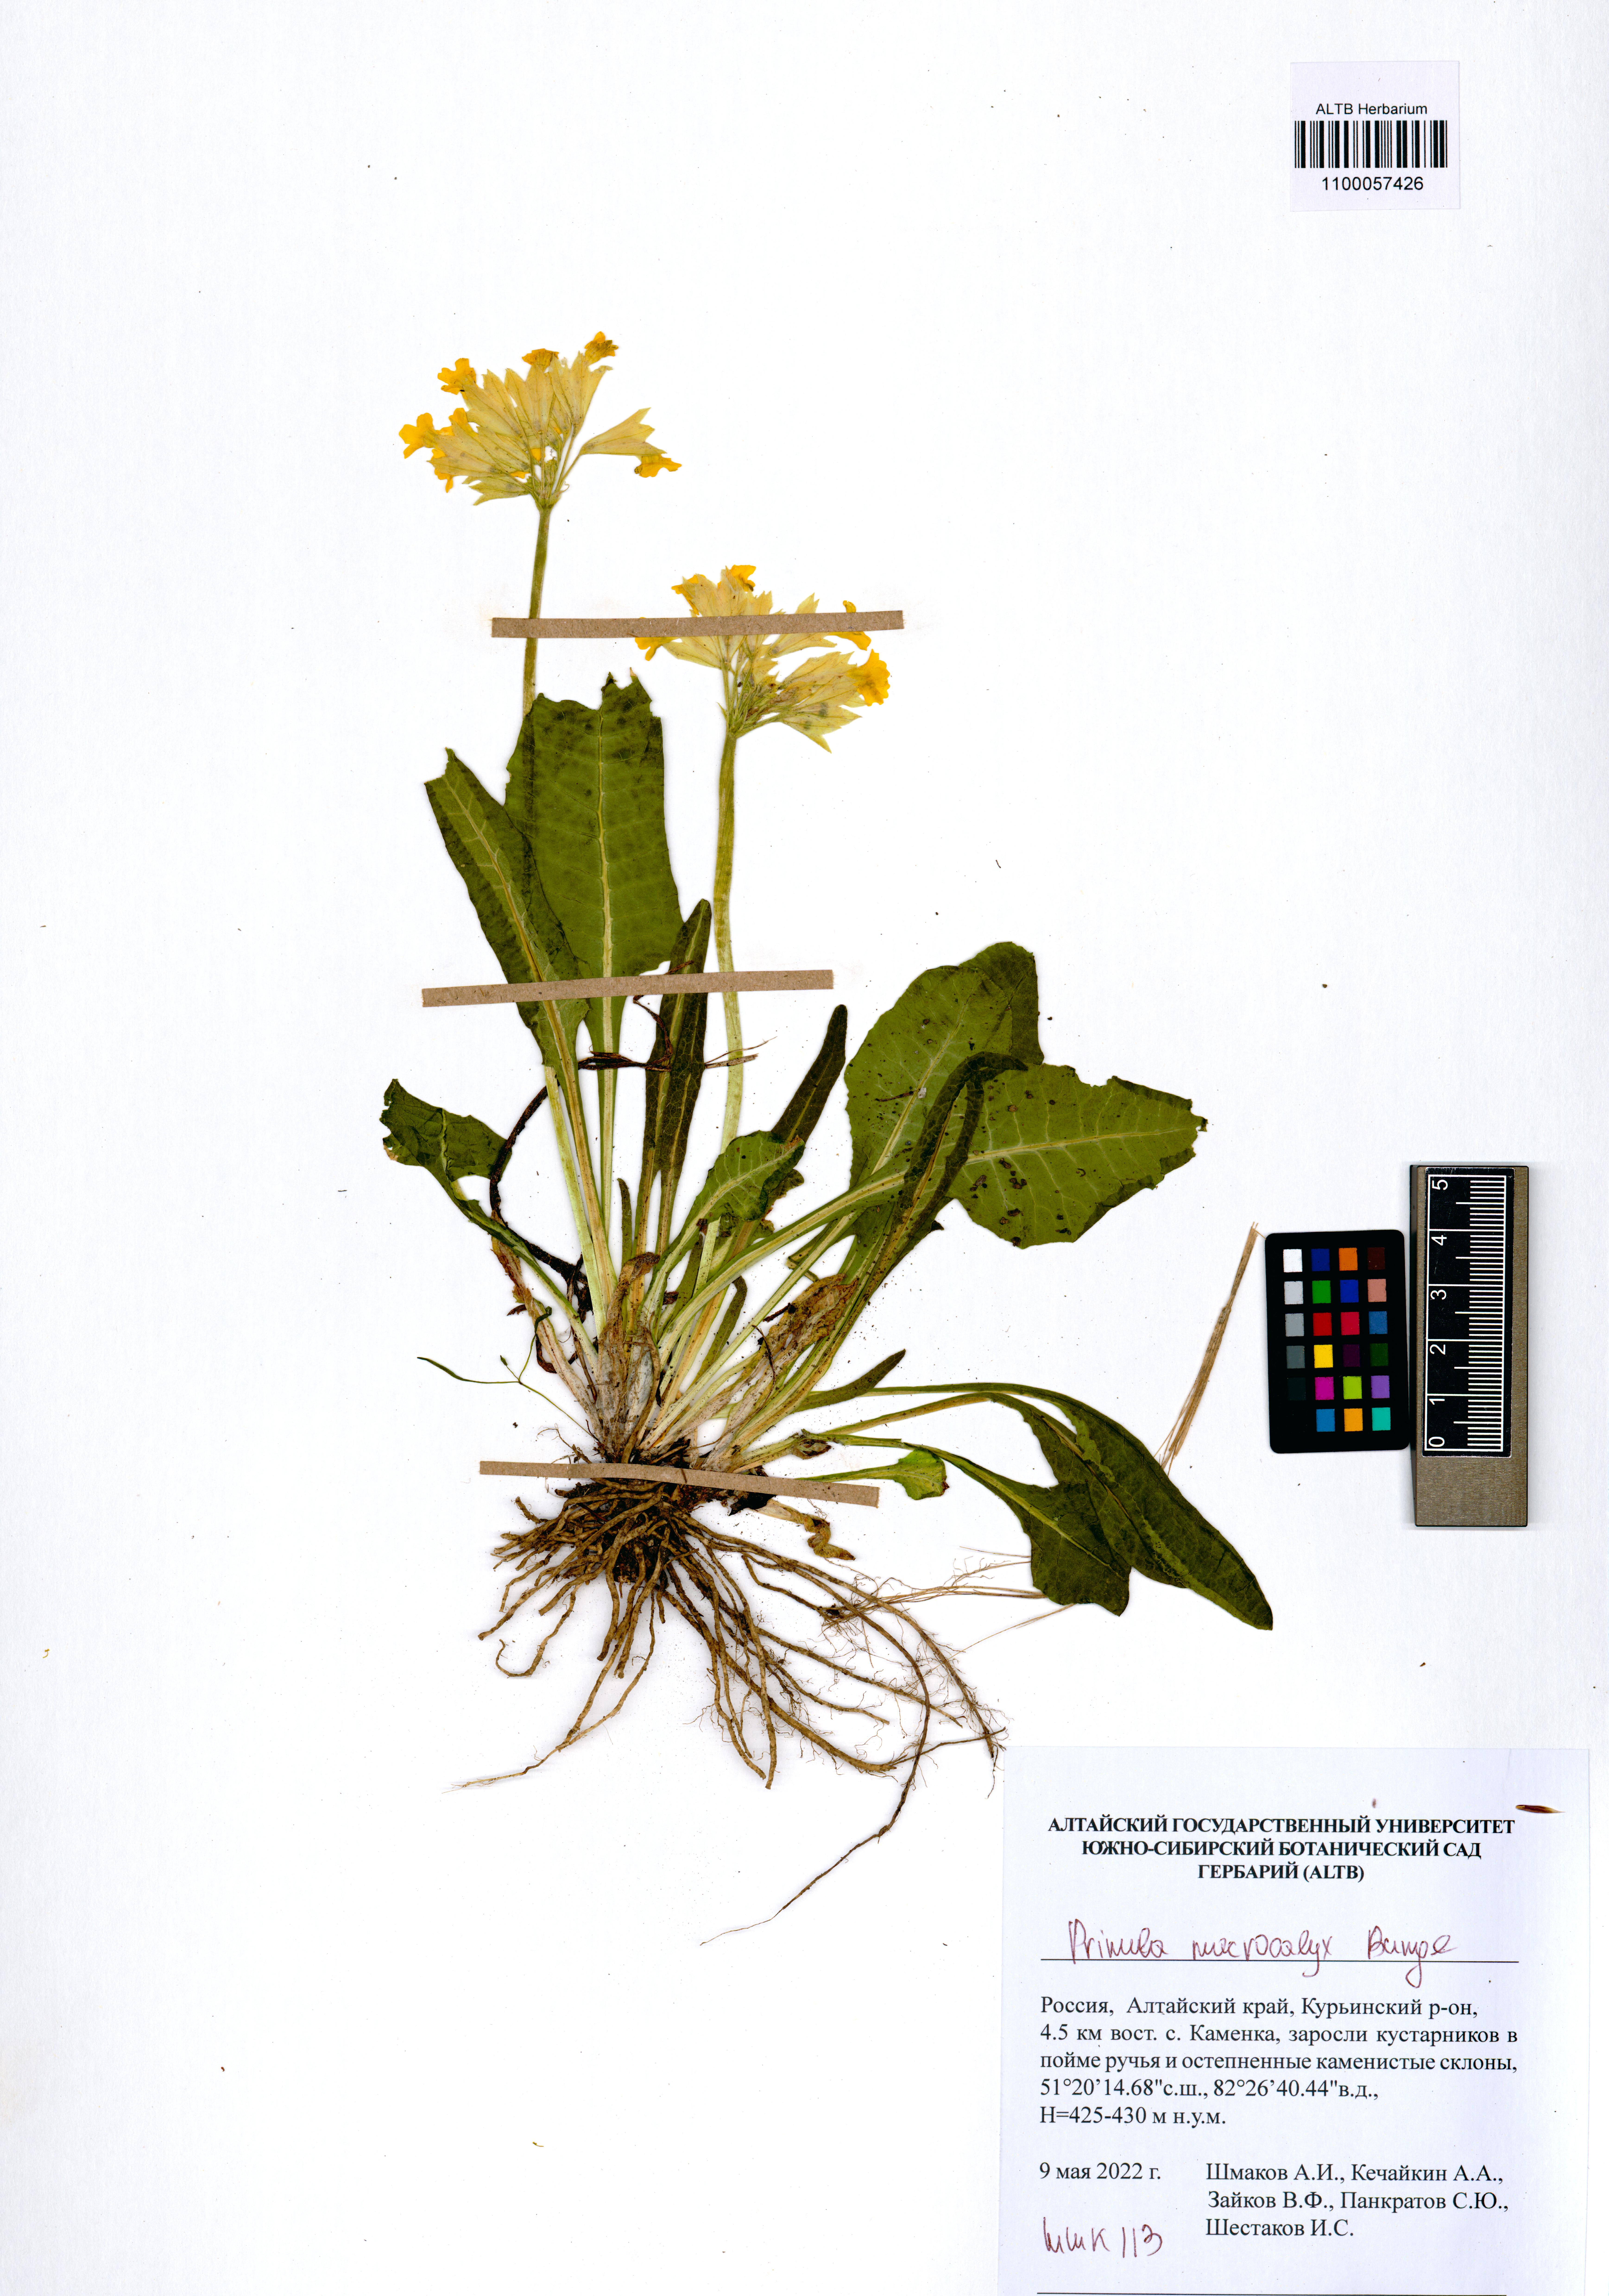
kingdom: Plantae
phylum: Tracheophyta
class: Magnoliopsida
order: Ericales
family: Primulaceae
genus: Primula
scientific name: Primula veris
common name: Cowslip
